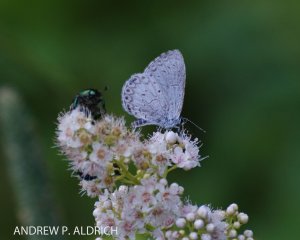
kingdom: Animalia
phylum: Arthropoda
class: Insecta
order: Lepidoptera
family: Lycaenidae
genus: Celastrina
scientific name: Celastrina
